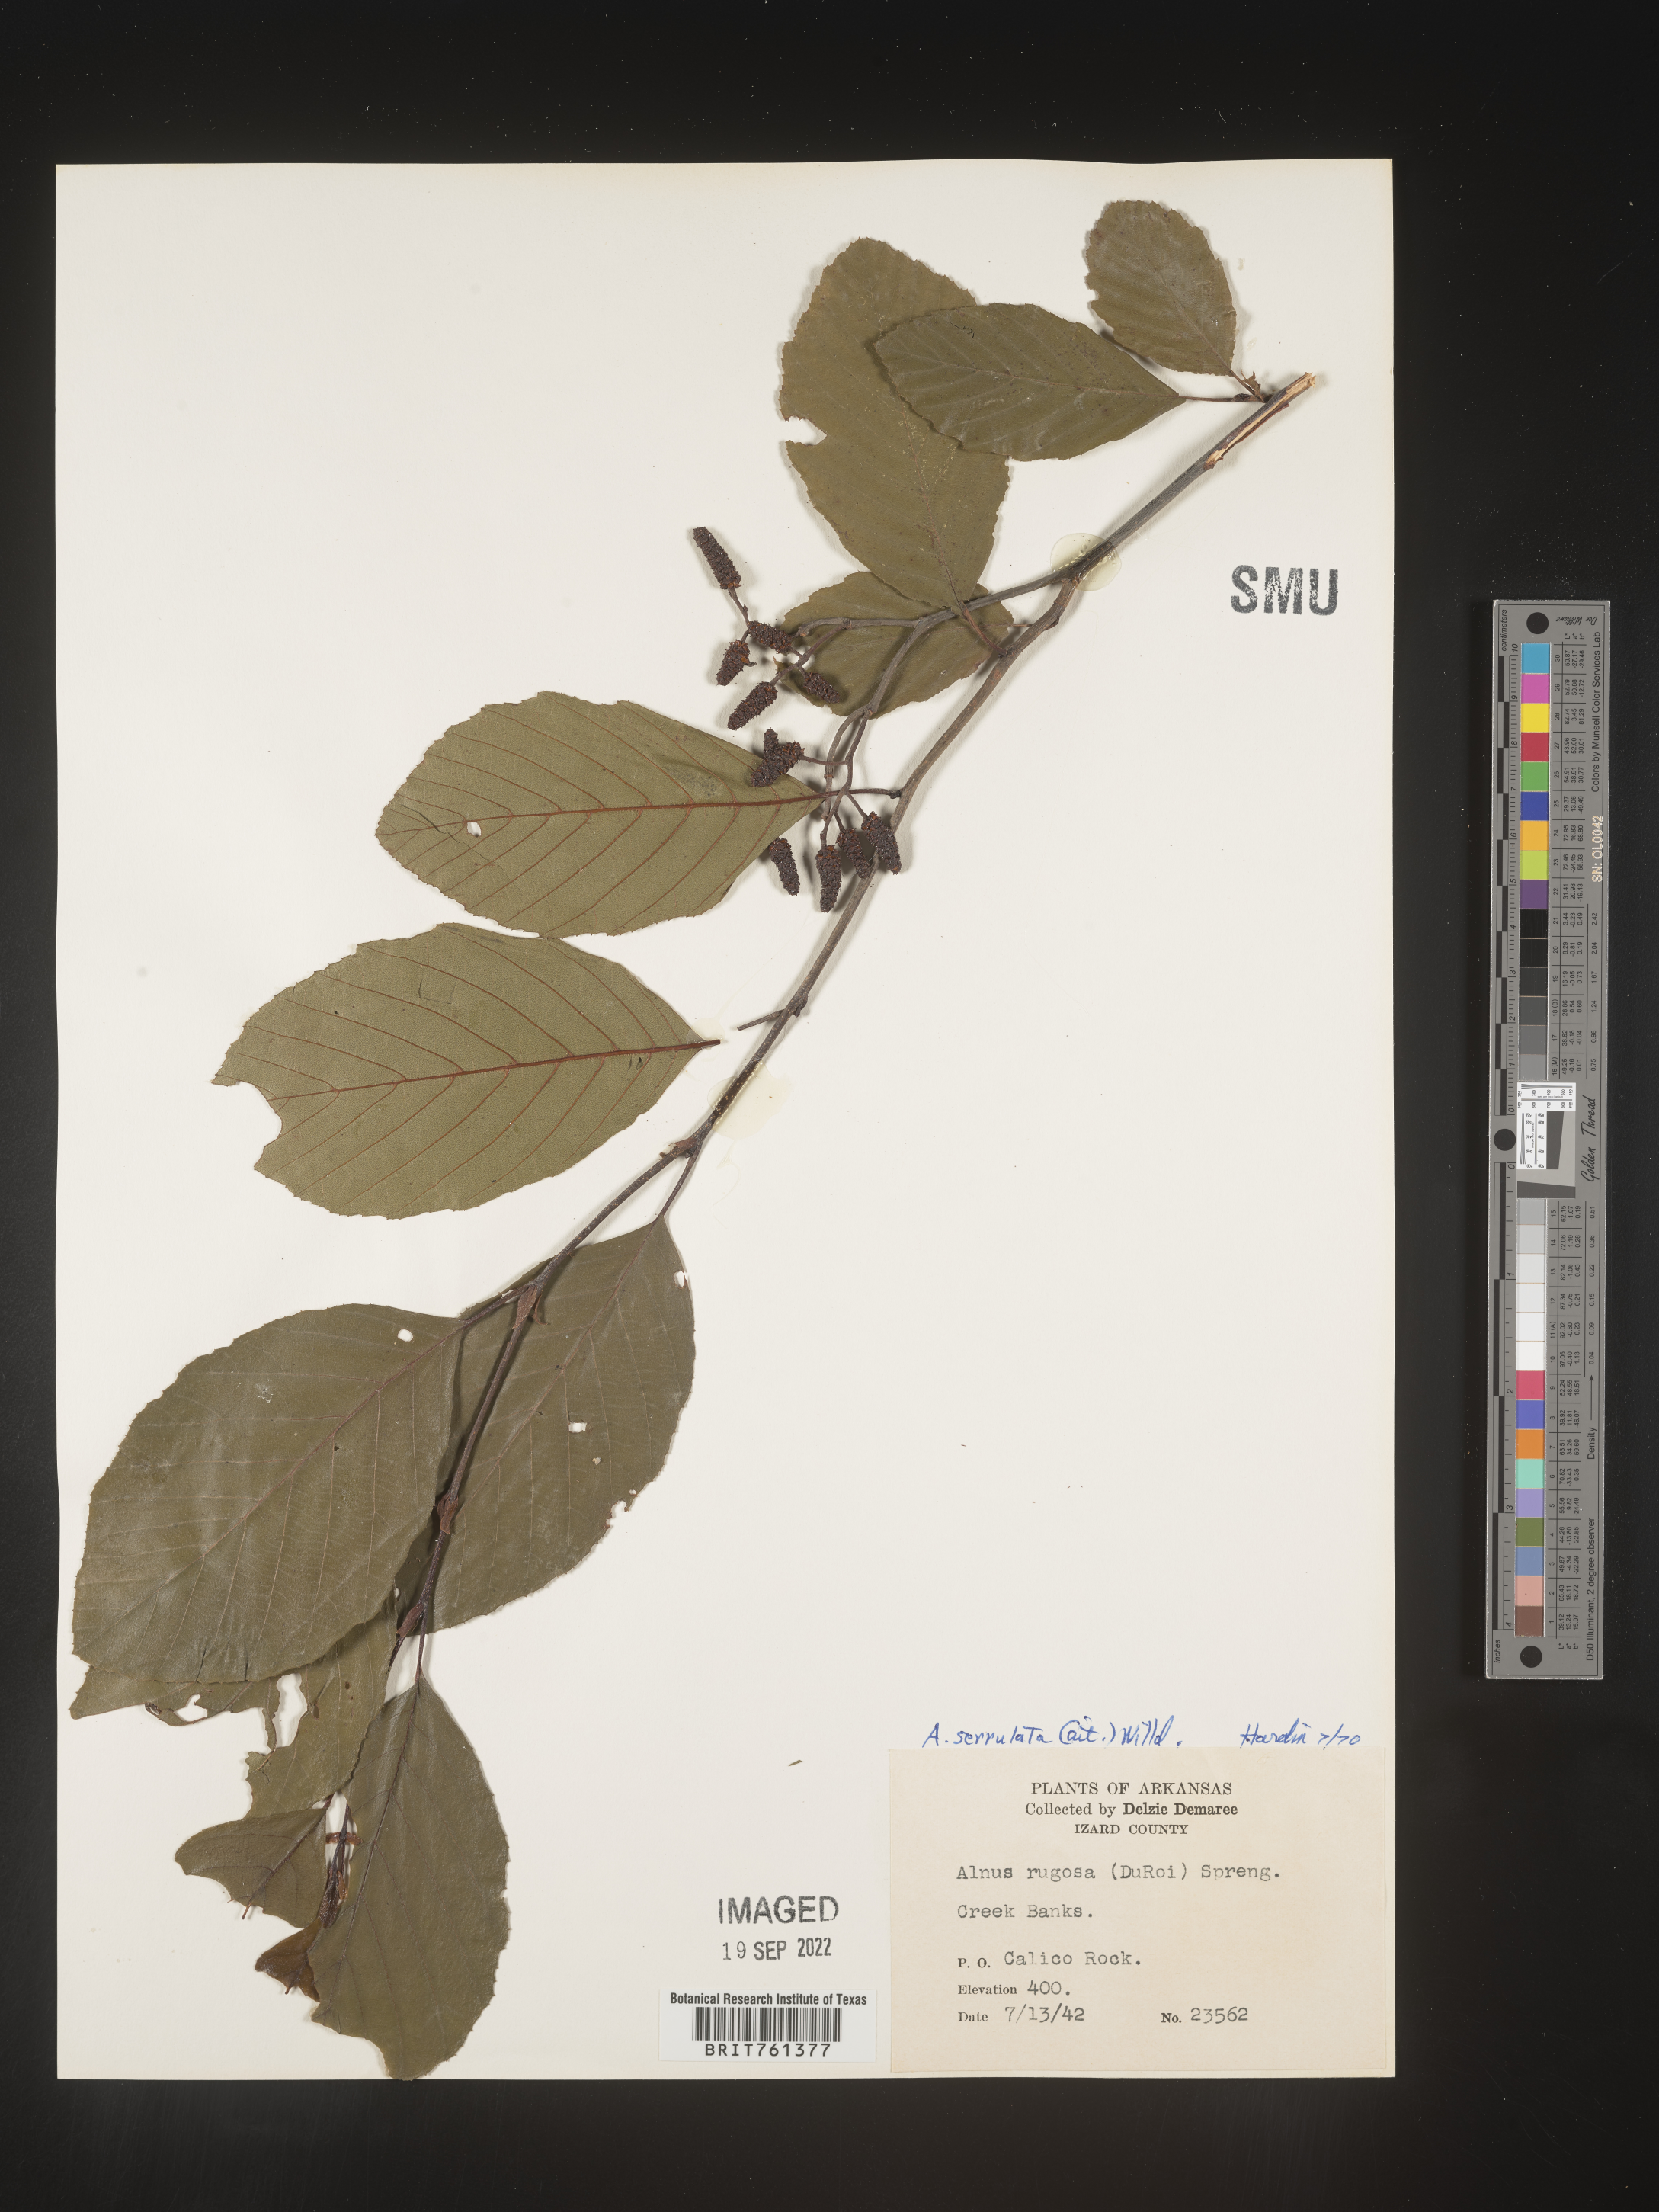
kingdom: Plantae
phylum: Tracheophyta
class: Magnoliopsida
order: Fagales
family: Betulaceae
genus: Alnus
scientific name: Alnus serrulata
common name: Hazel alder
